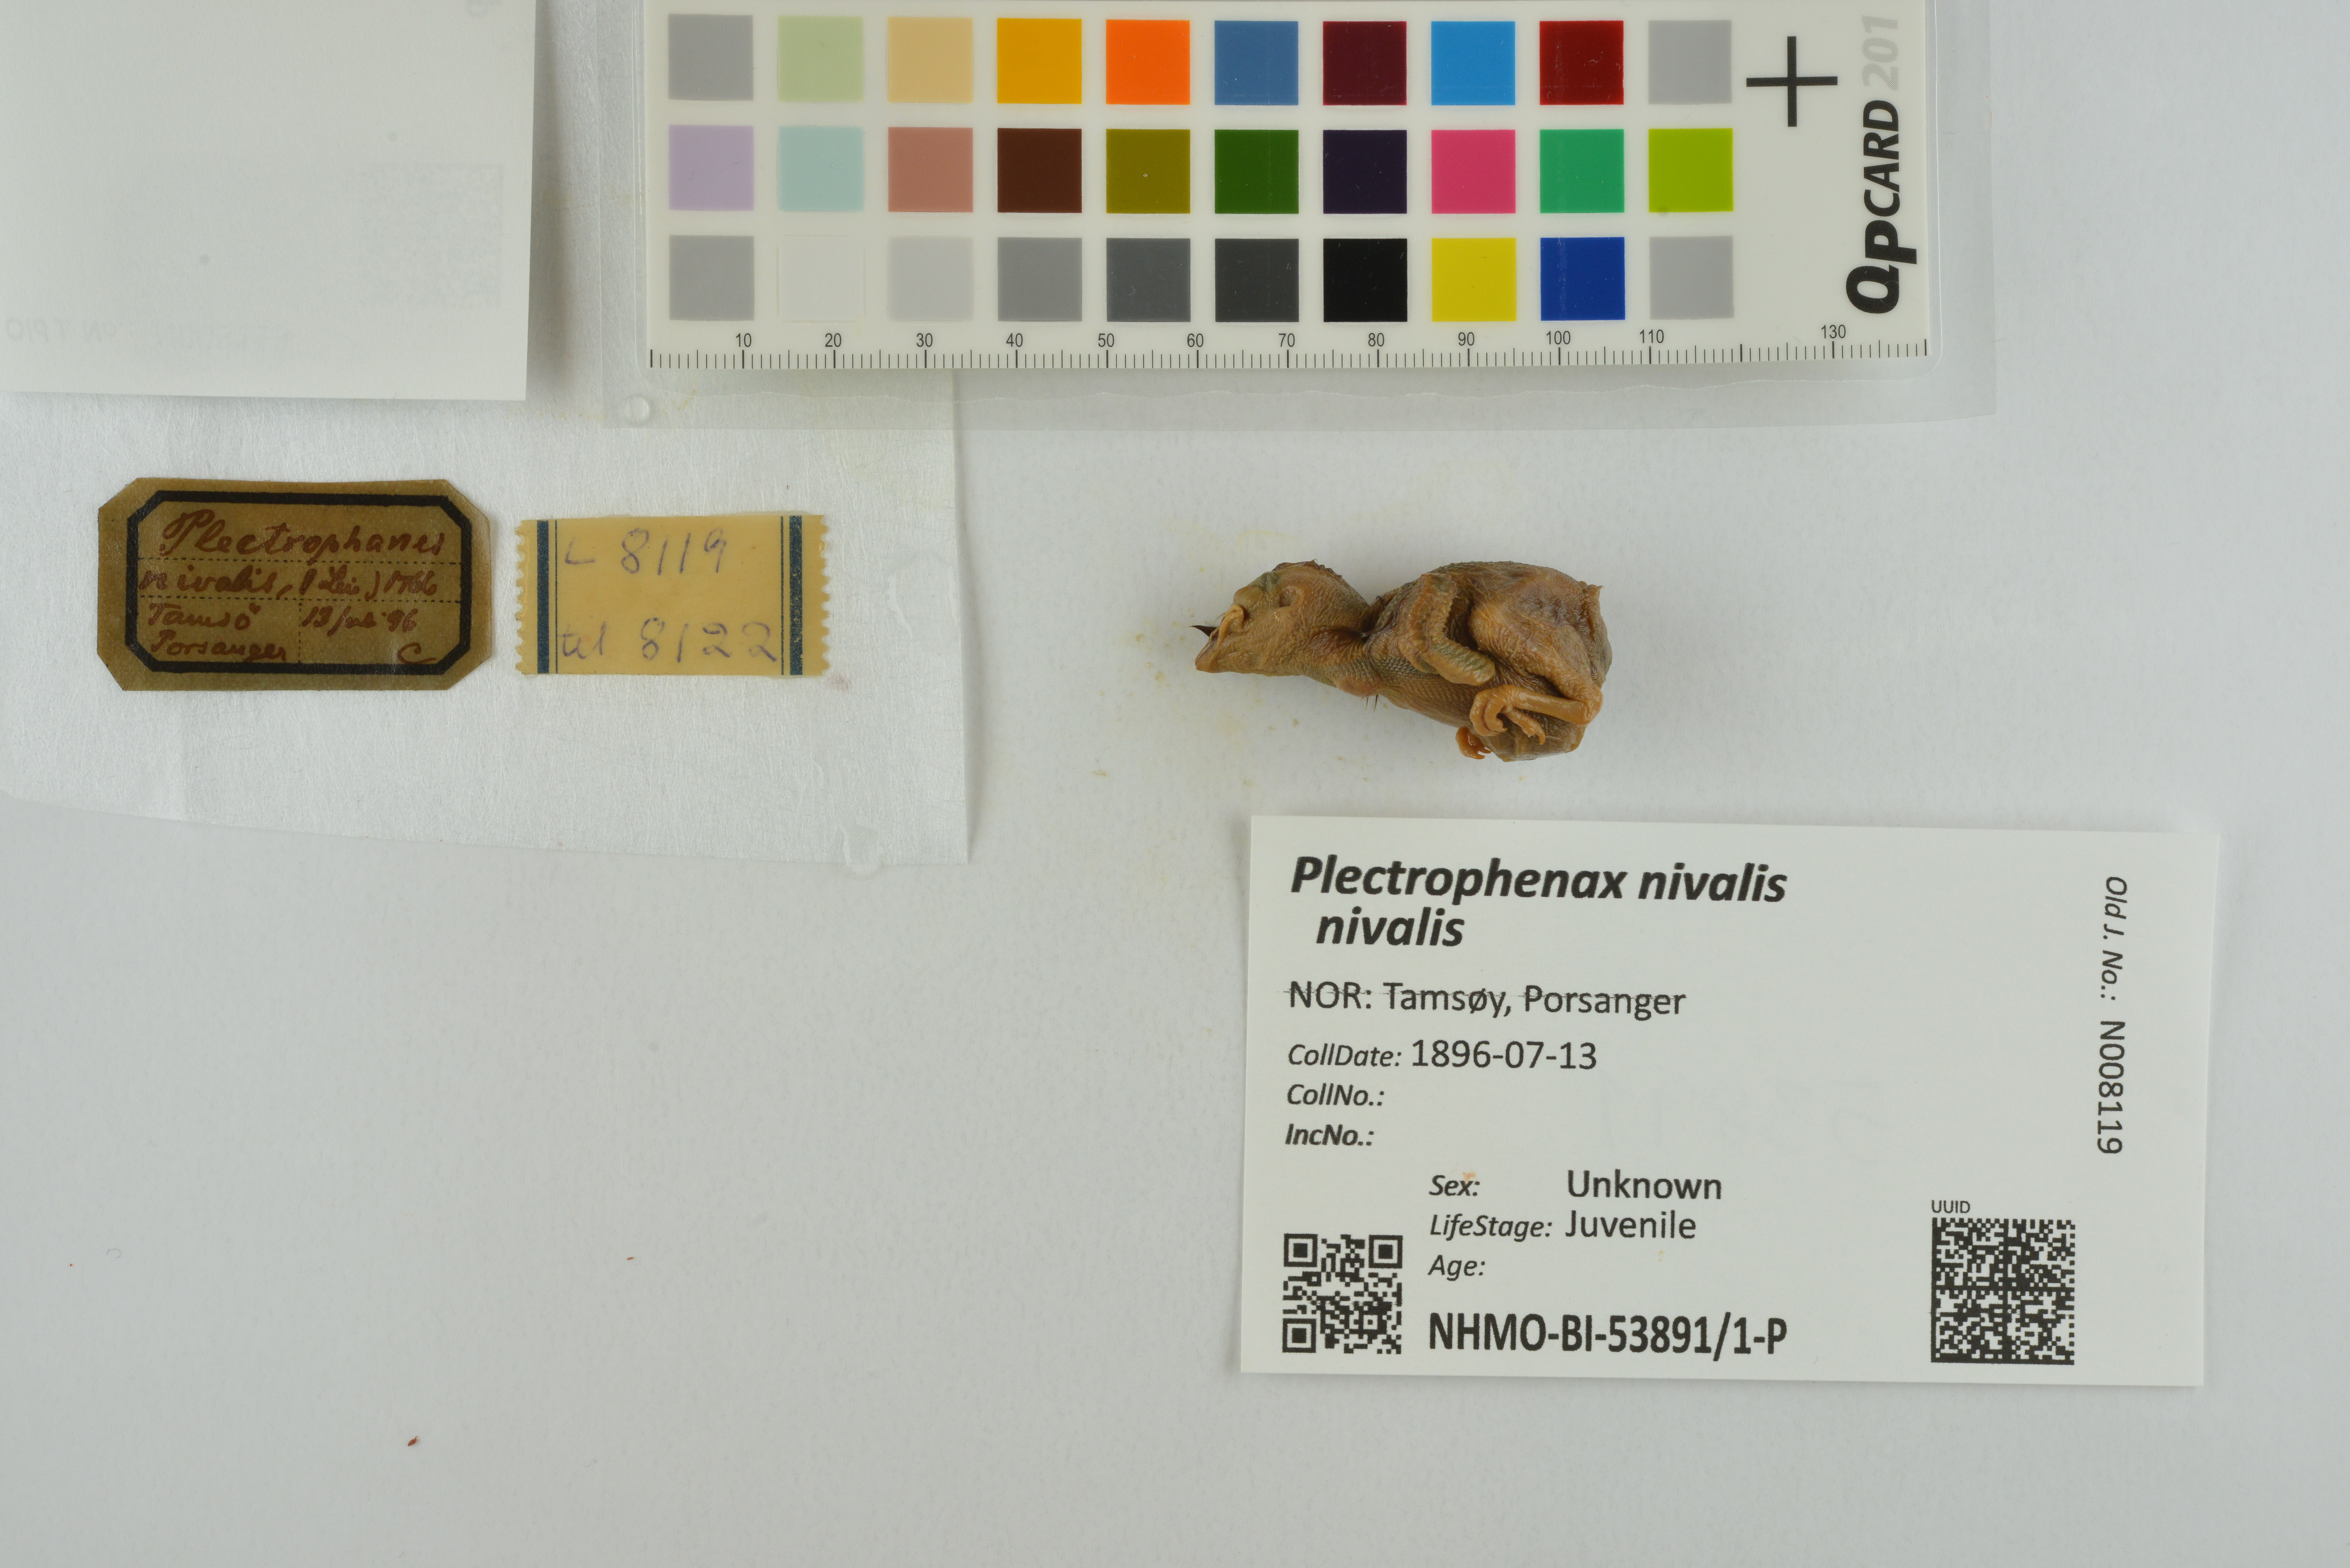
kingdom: Animalia
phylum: Chordata
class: Aves
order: Passeriformes
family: Calcariidae
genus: Plectrophenax
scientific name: Plectrophenax nivalis
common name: Snow bunting
